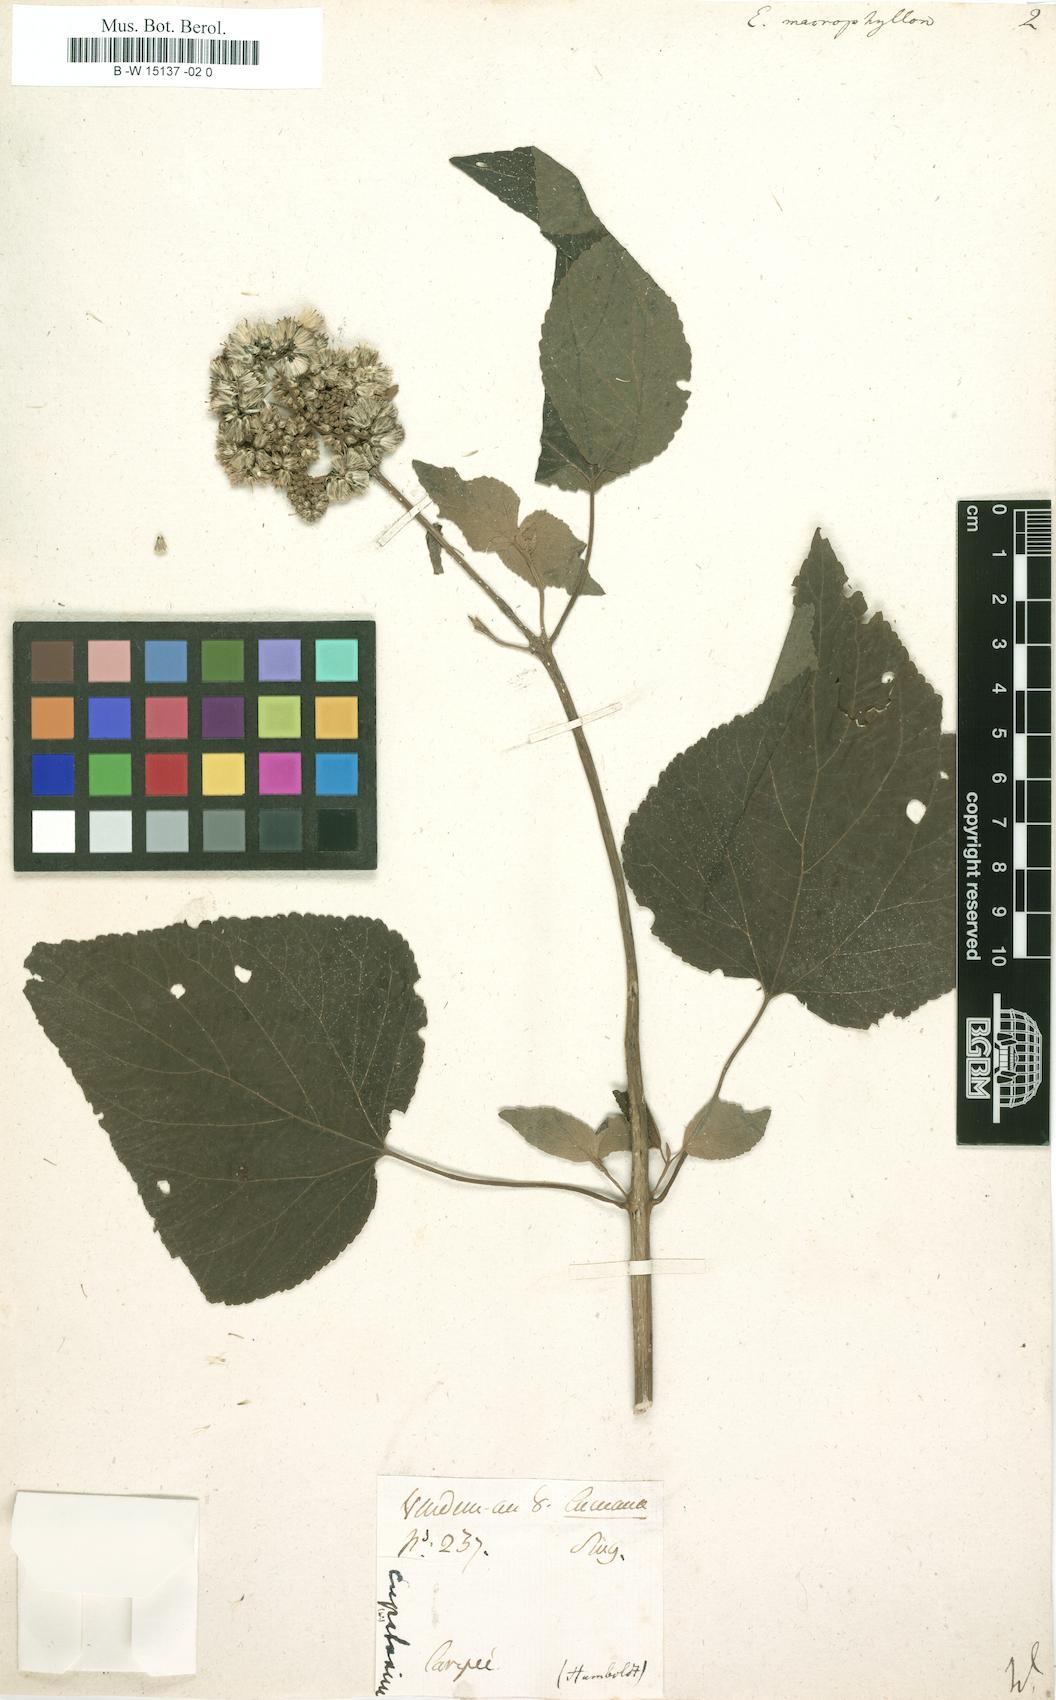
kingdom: Plantae
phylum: Tracheophyta
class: Magnoliopsida
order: Asterales
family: Asteraceae
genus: Hebeclinium
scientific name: Hebeclinium macrophyllum
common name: Largeleaf thoroughwort
